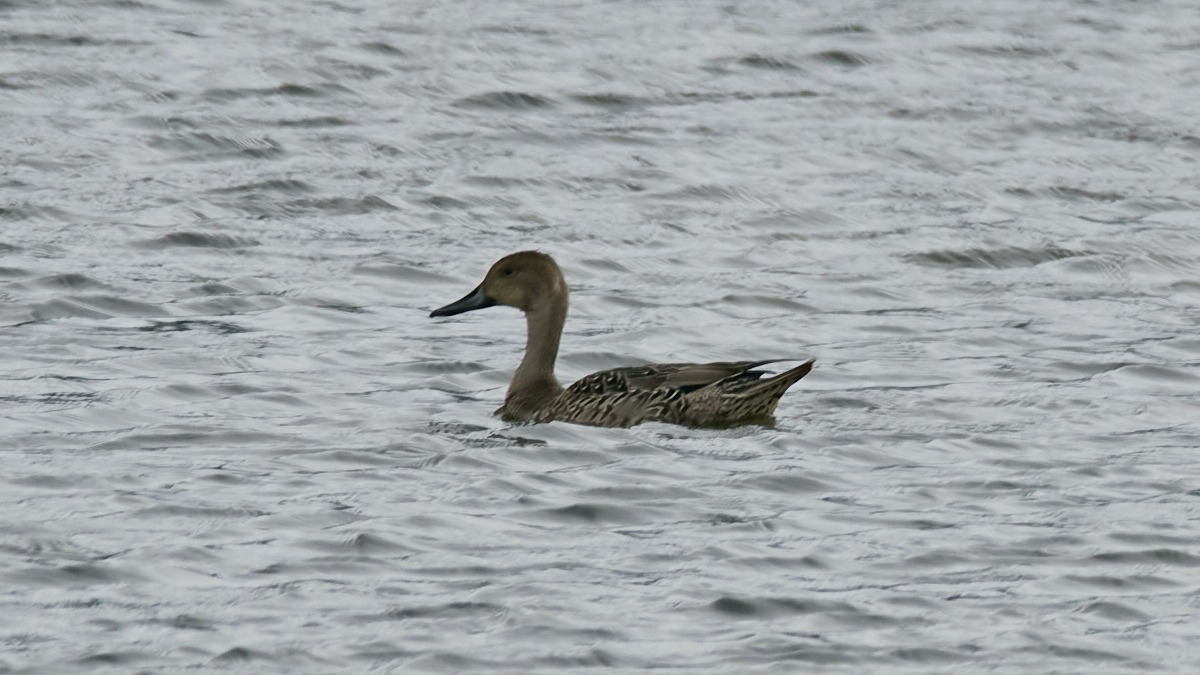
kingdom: Animalia
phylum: Chordata
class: Aves
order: Anseriformes
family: Anatidae
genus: Anas
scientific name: Anas acuta
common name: Spidsand
